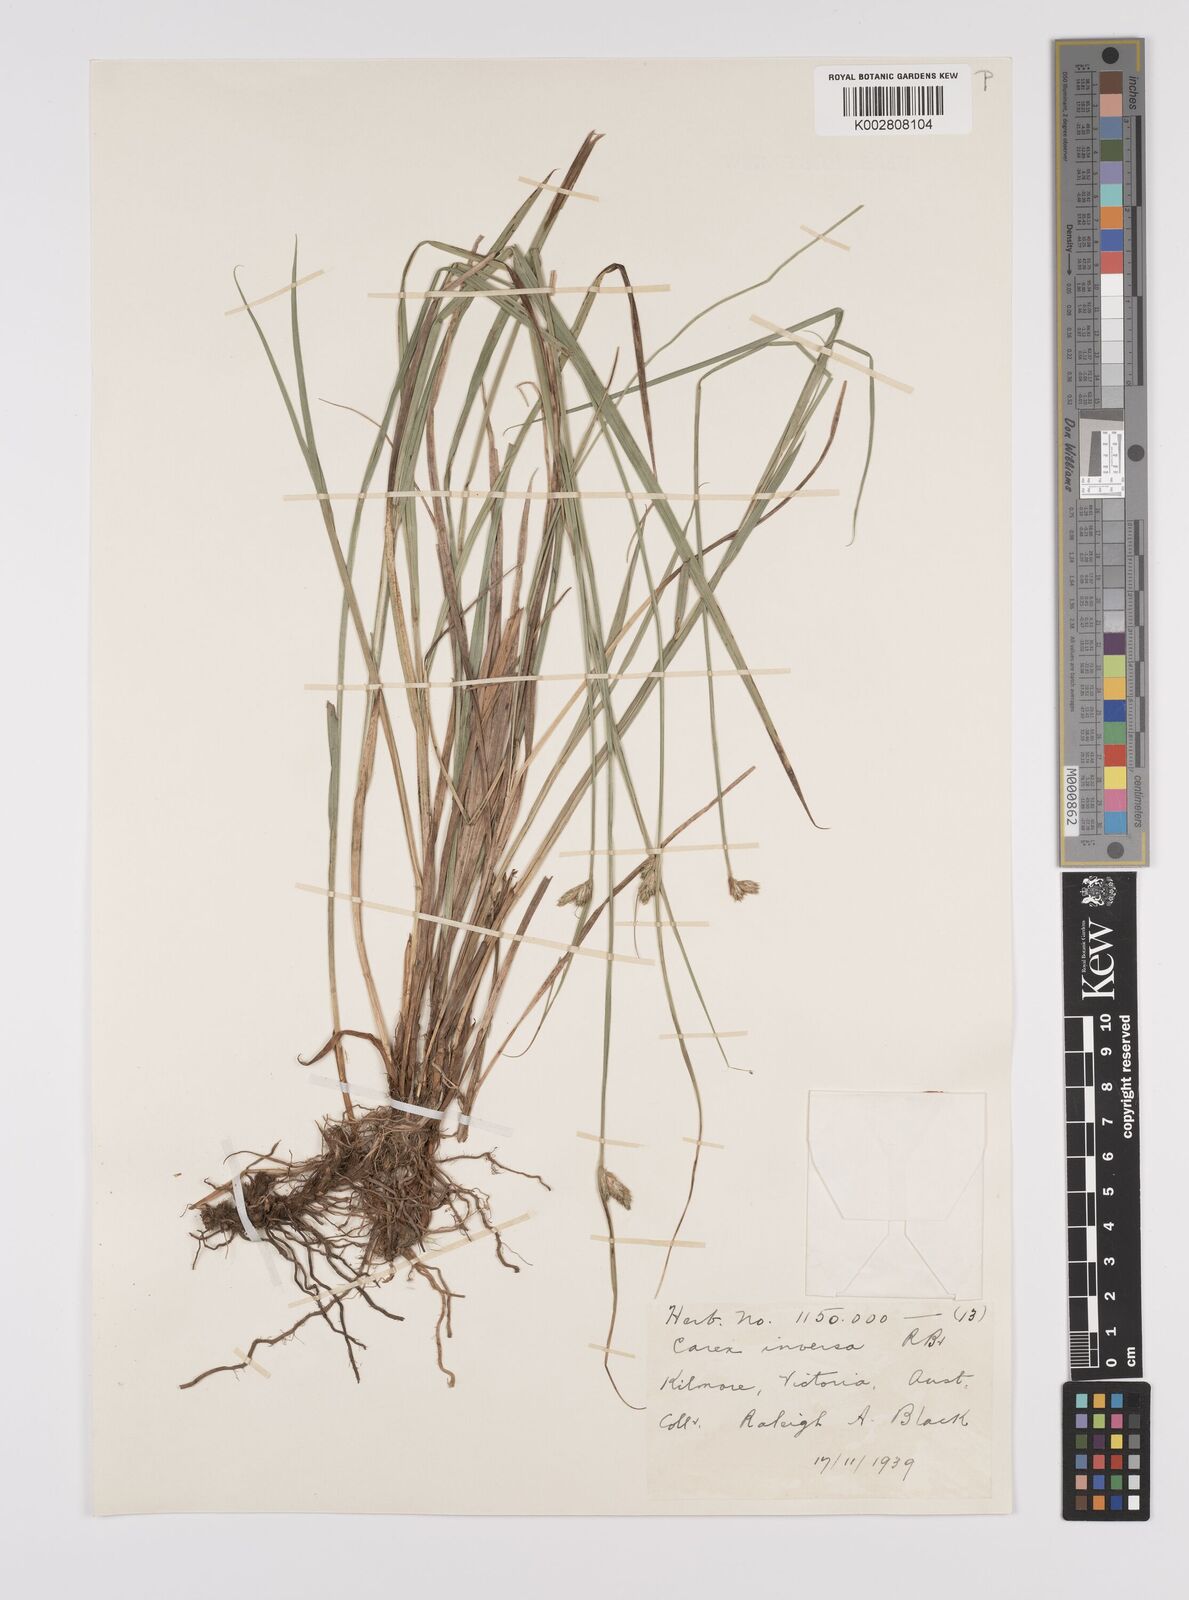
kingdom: Plantae
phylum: Tracheophyta
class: Liliopsida
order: Poales
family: Cyperaceae
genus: Carex
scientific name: Carex inversa
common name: Knob sedge
